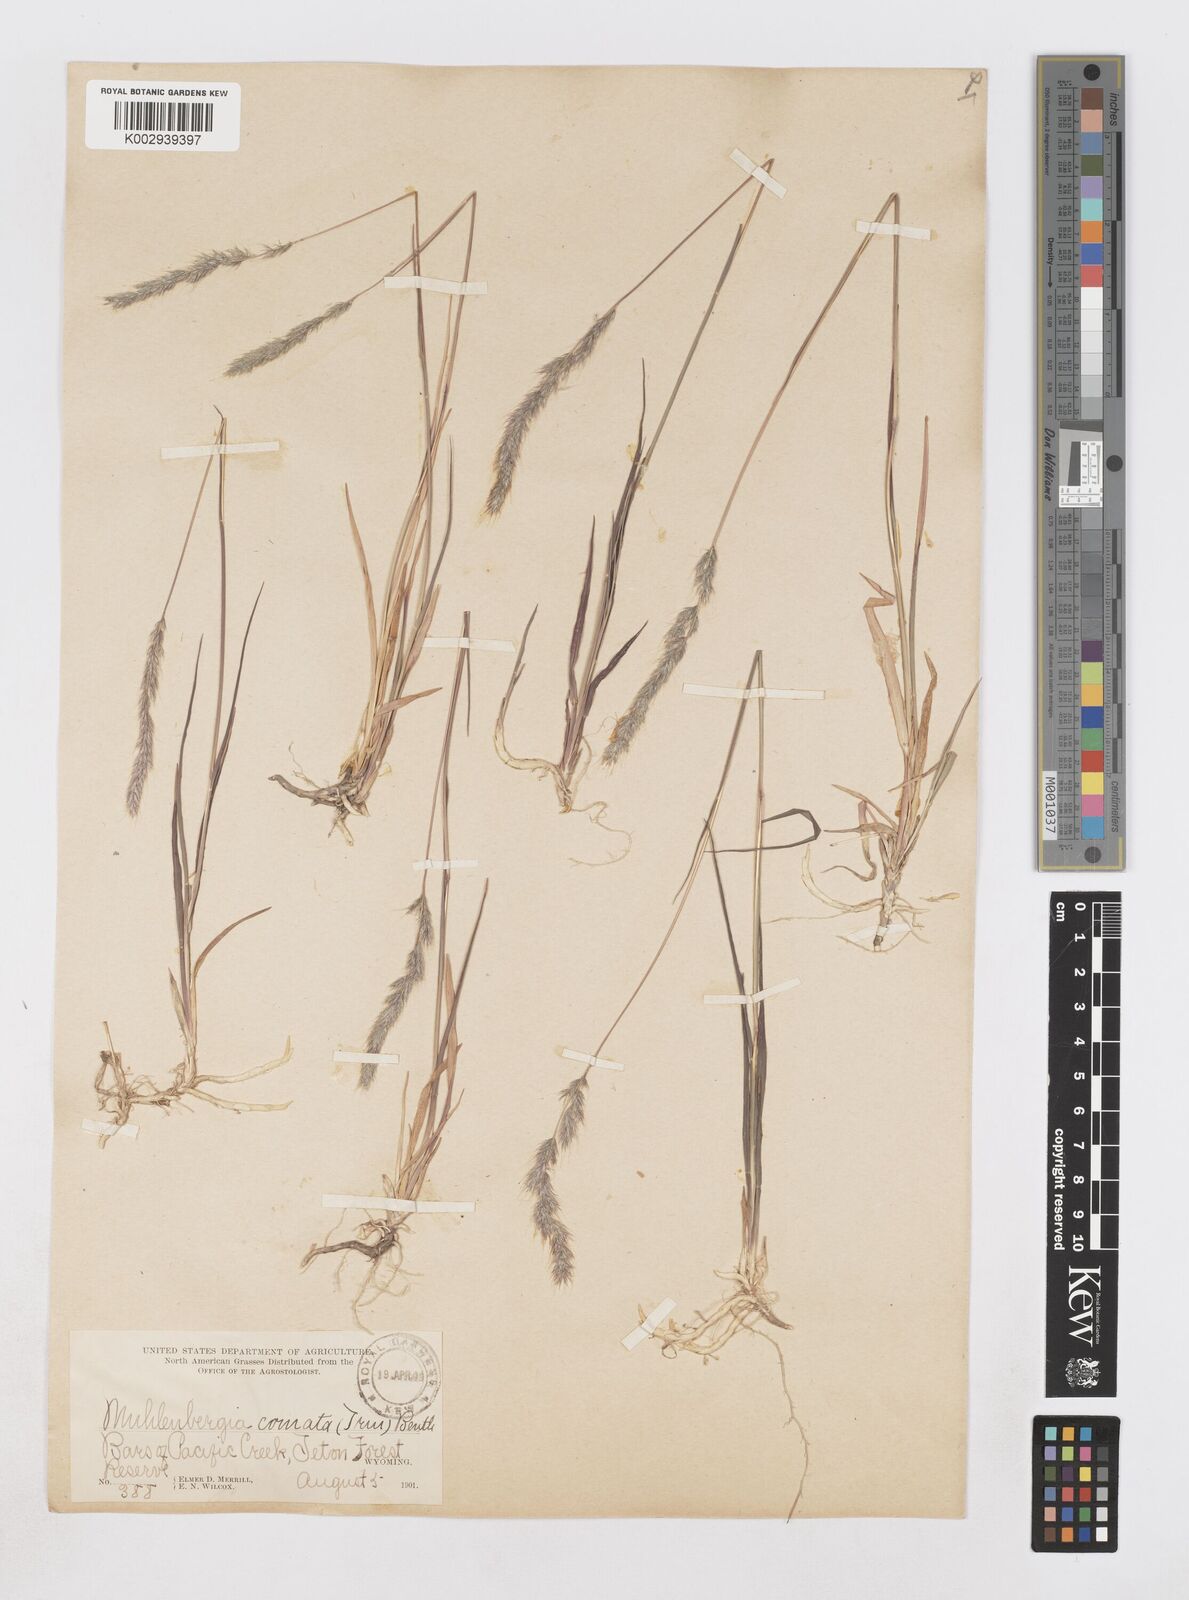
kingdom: Plantae
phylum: Tracheophyta
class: Liliopsida
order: Poales
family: Poaceae
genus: Muhlenbergia
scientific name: Muhlenbergia andina
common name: Foxtail muhly
